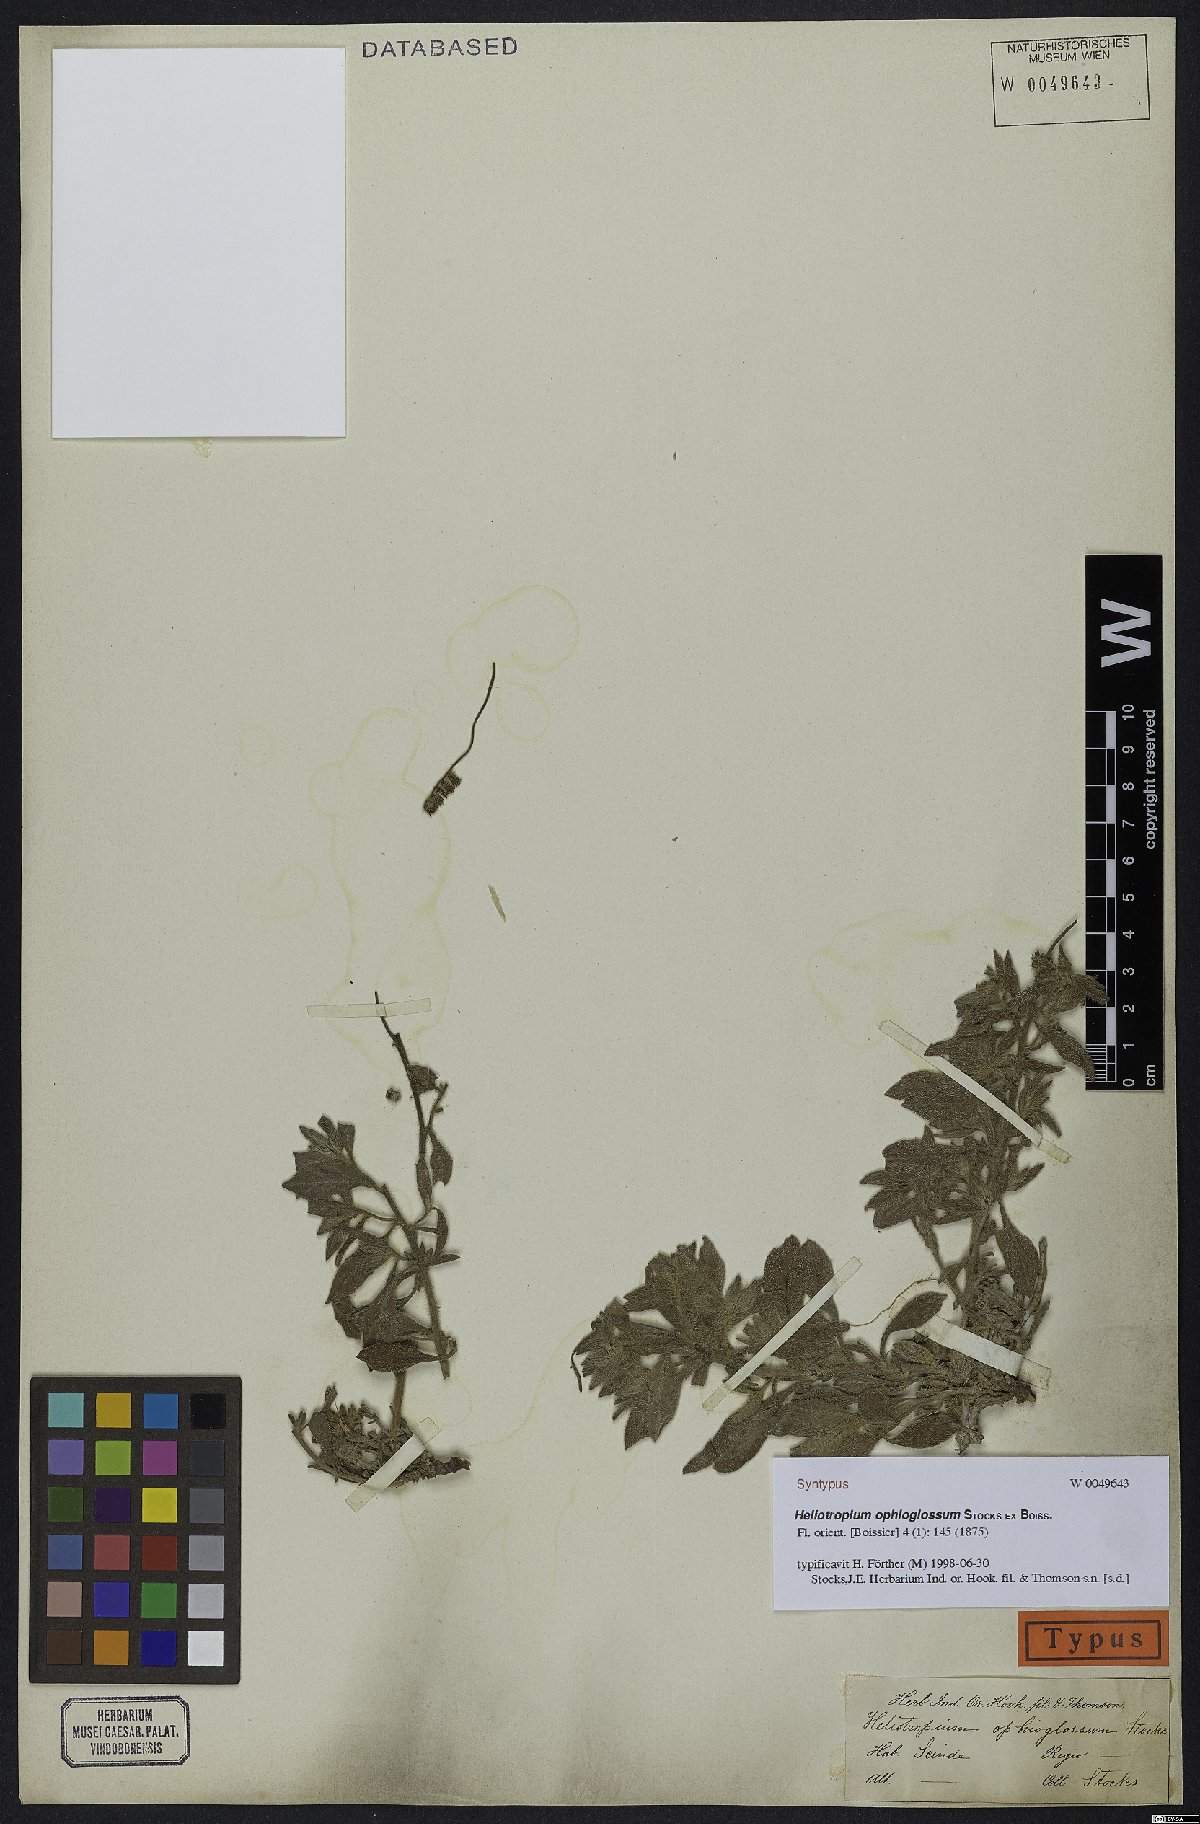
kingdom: Plantae
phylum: Tracheophyta
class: Magnoliopsida
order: Boraginales
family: Heliotropiaceae
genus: Heliotropium
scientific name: Heliotropium ophioglossum
